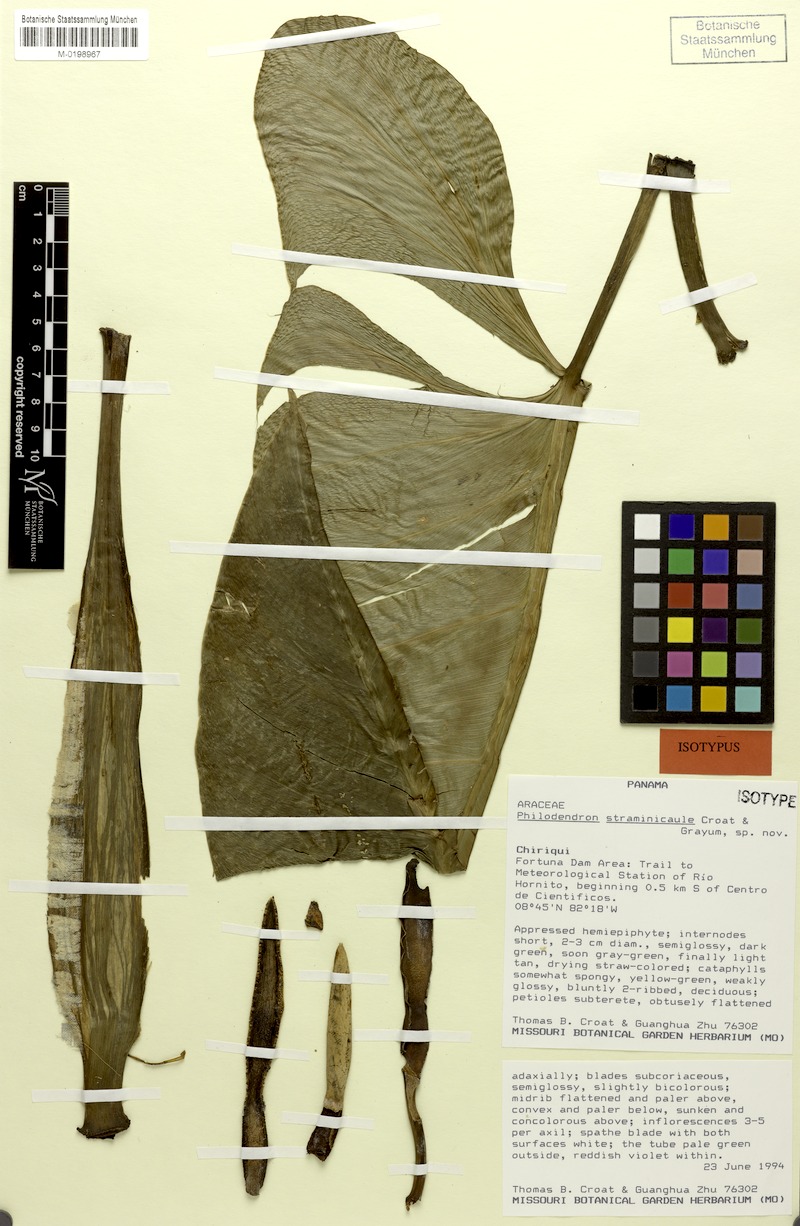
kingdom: Plantae
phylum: Tracheophyta
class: Liliopsida
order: Alismatales
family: Araceae
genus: Philodendron
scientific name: Philodendron straminicaule
